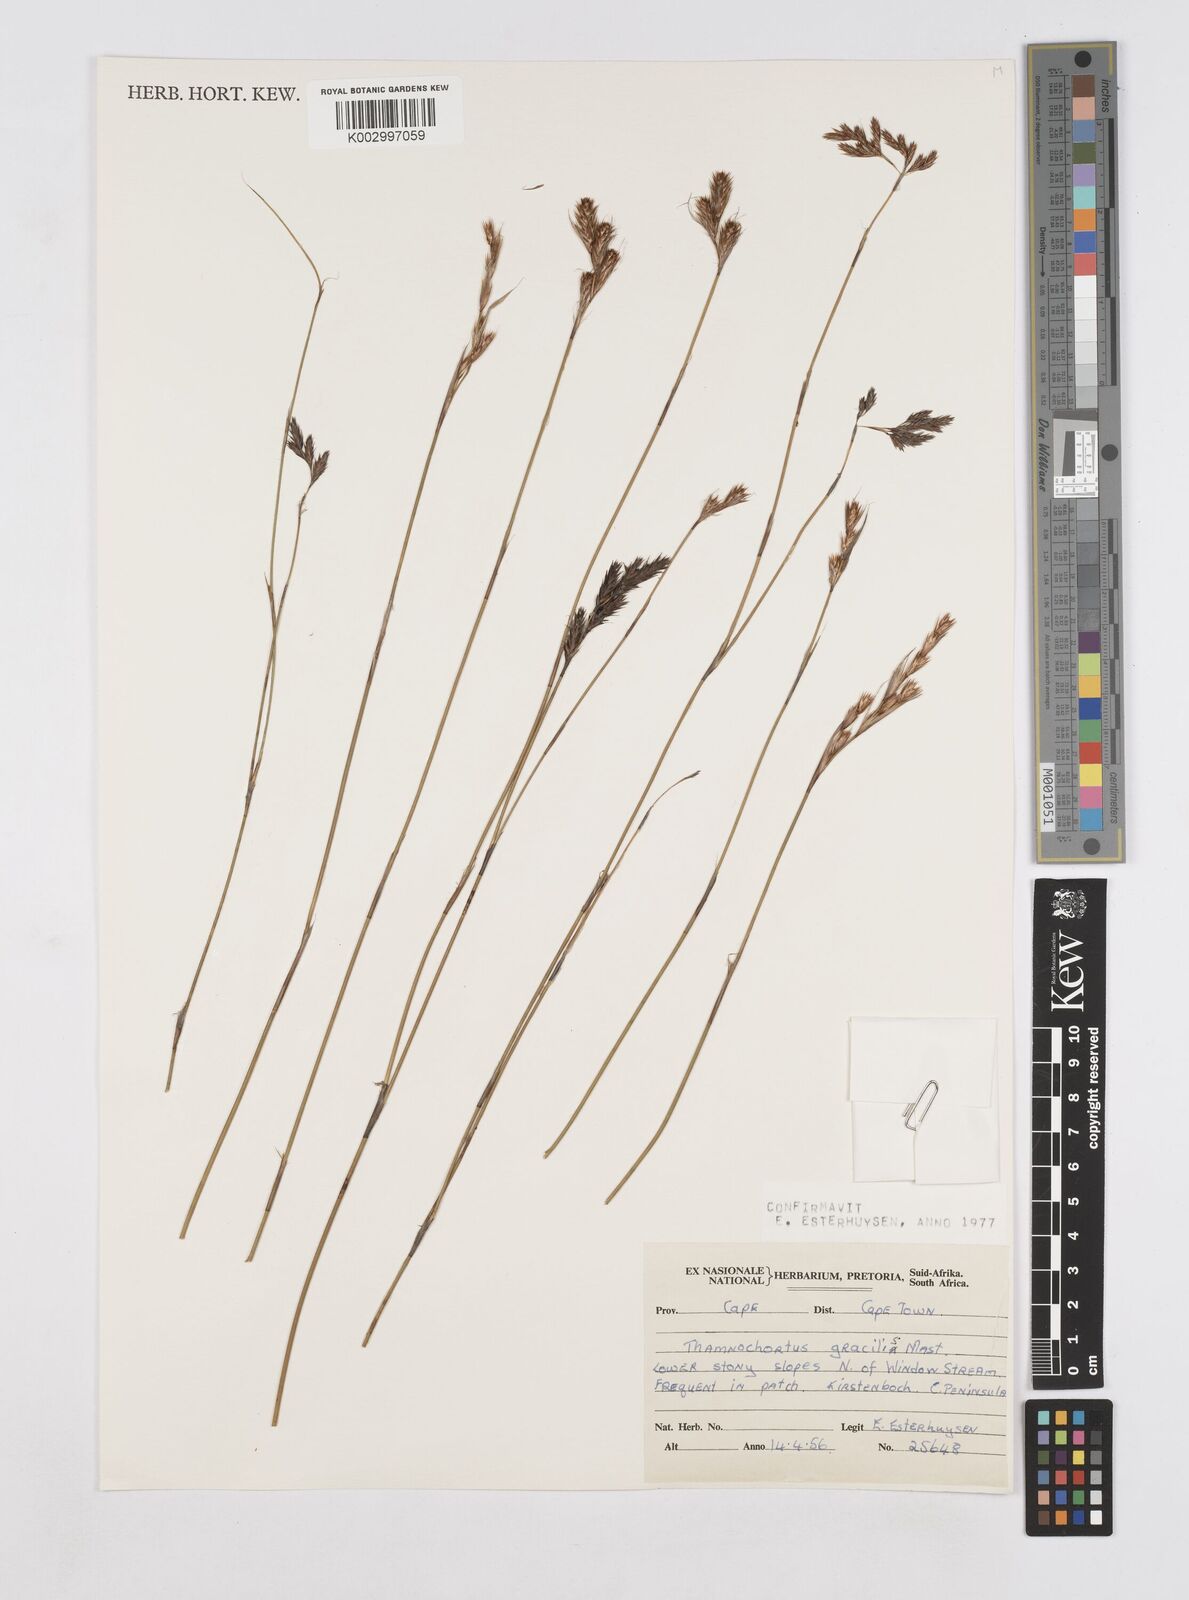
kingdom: Plantae
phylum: Tracheophyta
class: Liliopsida
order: Poales
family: Restionaceae
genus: Thamnochortus
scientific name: Thamnochortus gracilis
